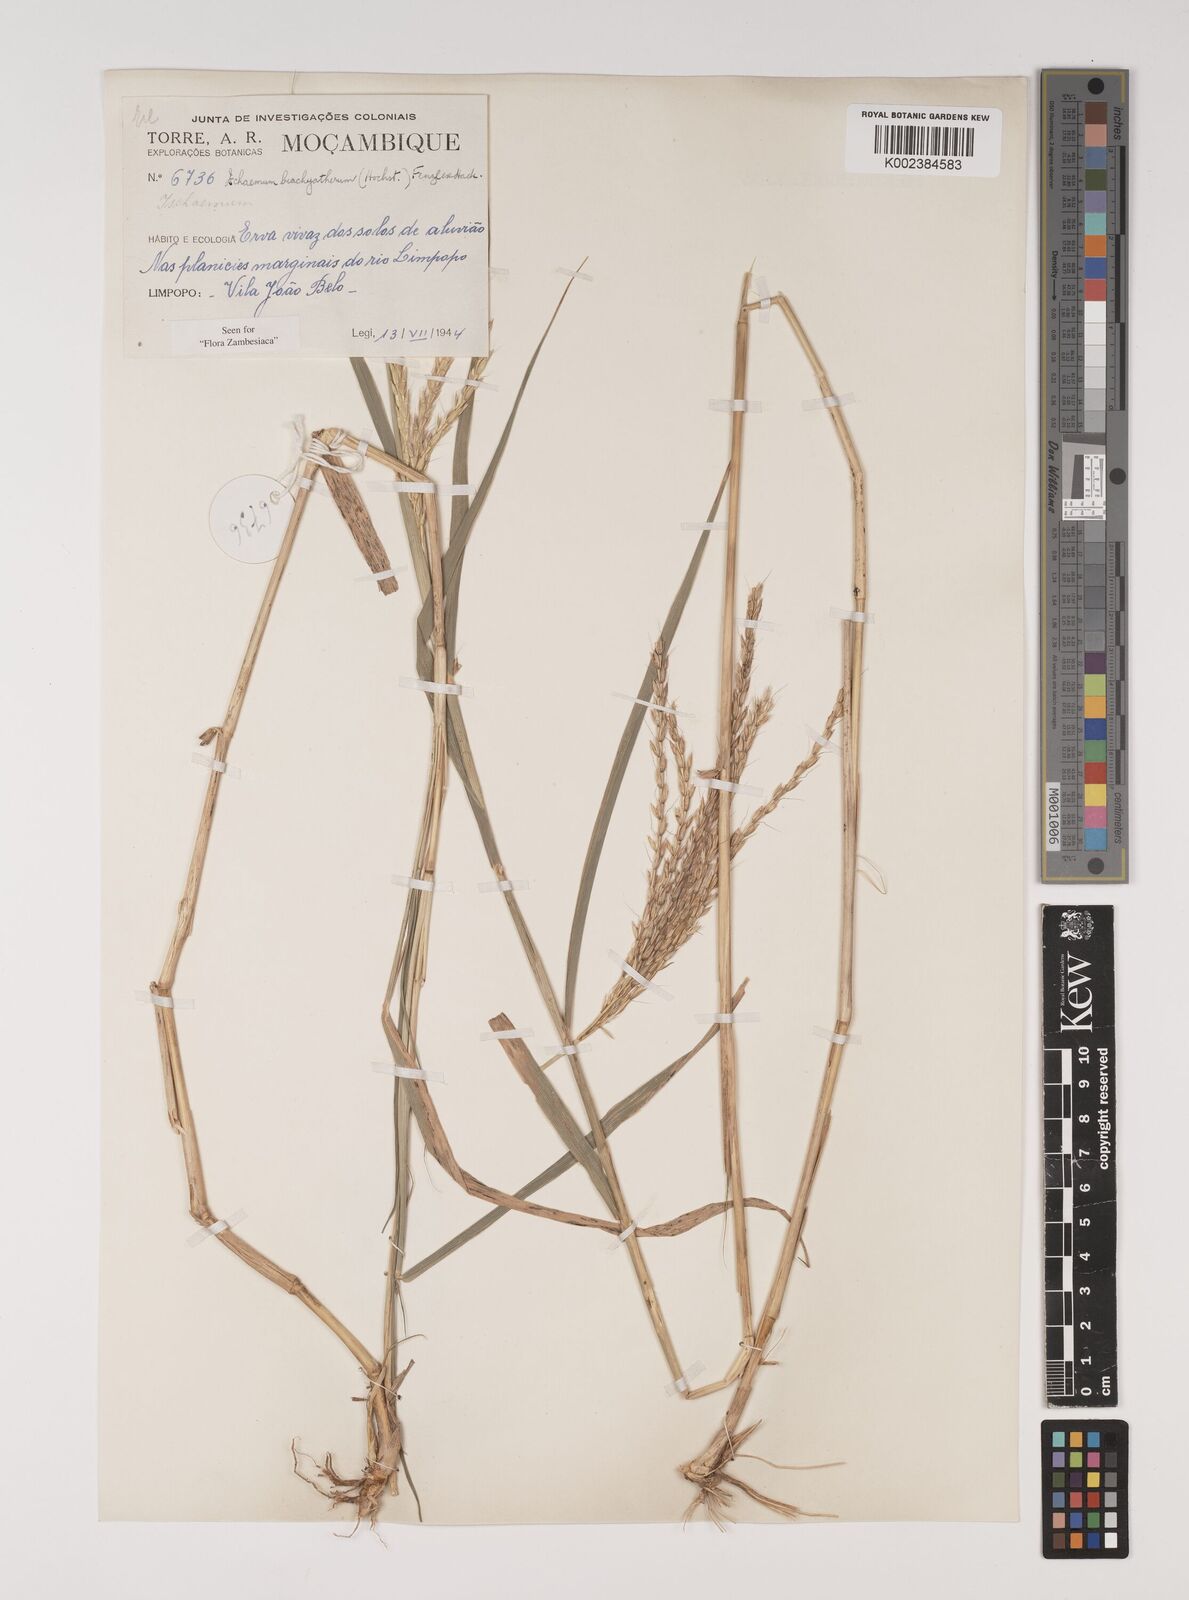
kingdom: Plantae
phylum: Tracheophyta
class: Liliopsida
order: Poales
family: Poaceae
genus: Ischaemum
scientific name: Ischaemum afrum
